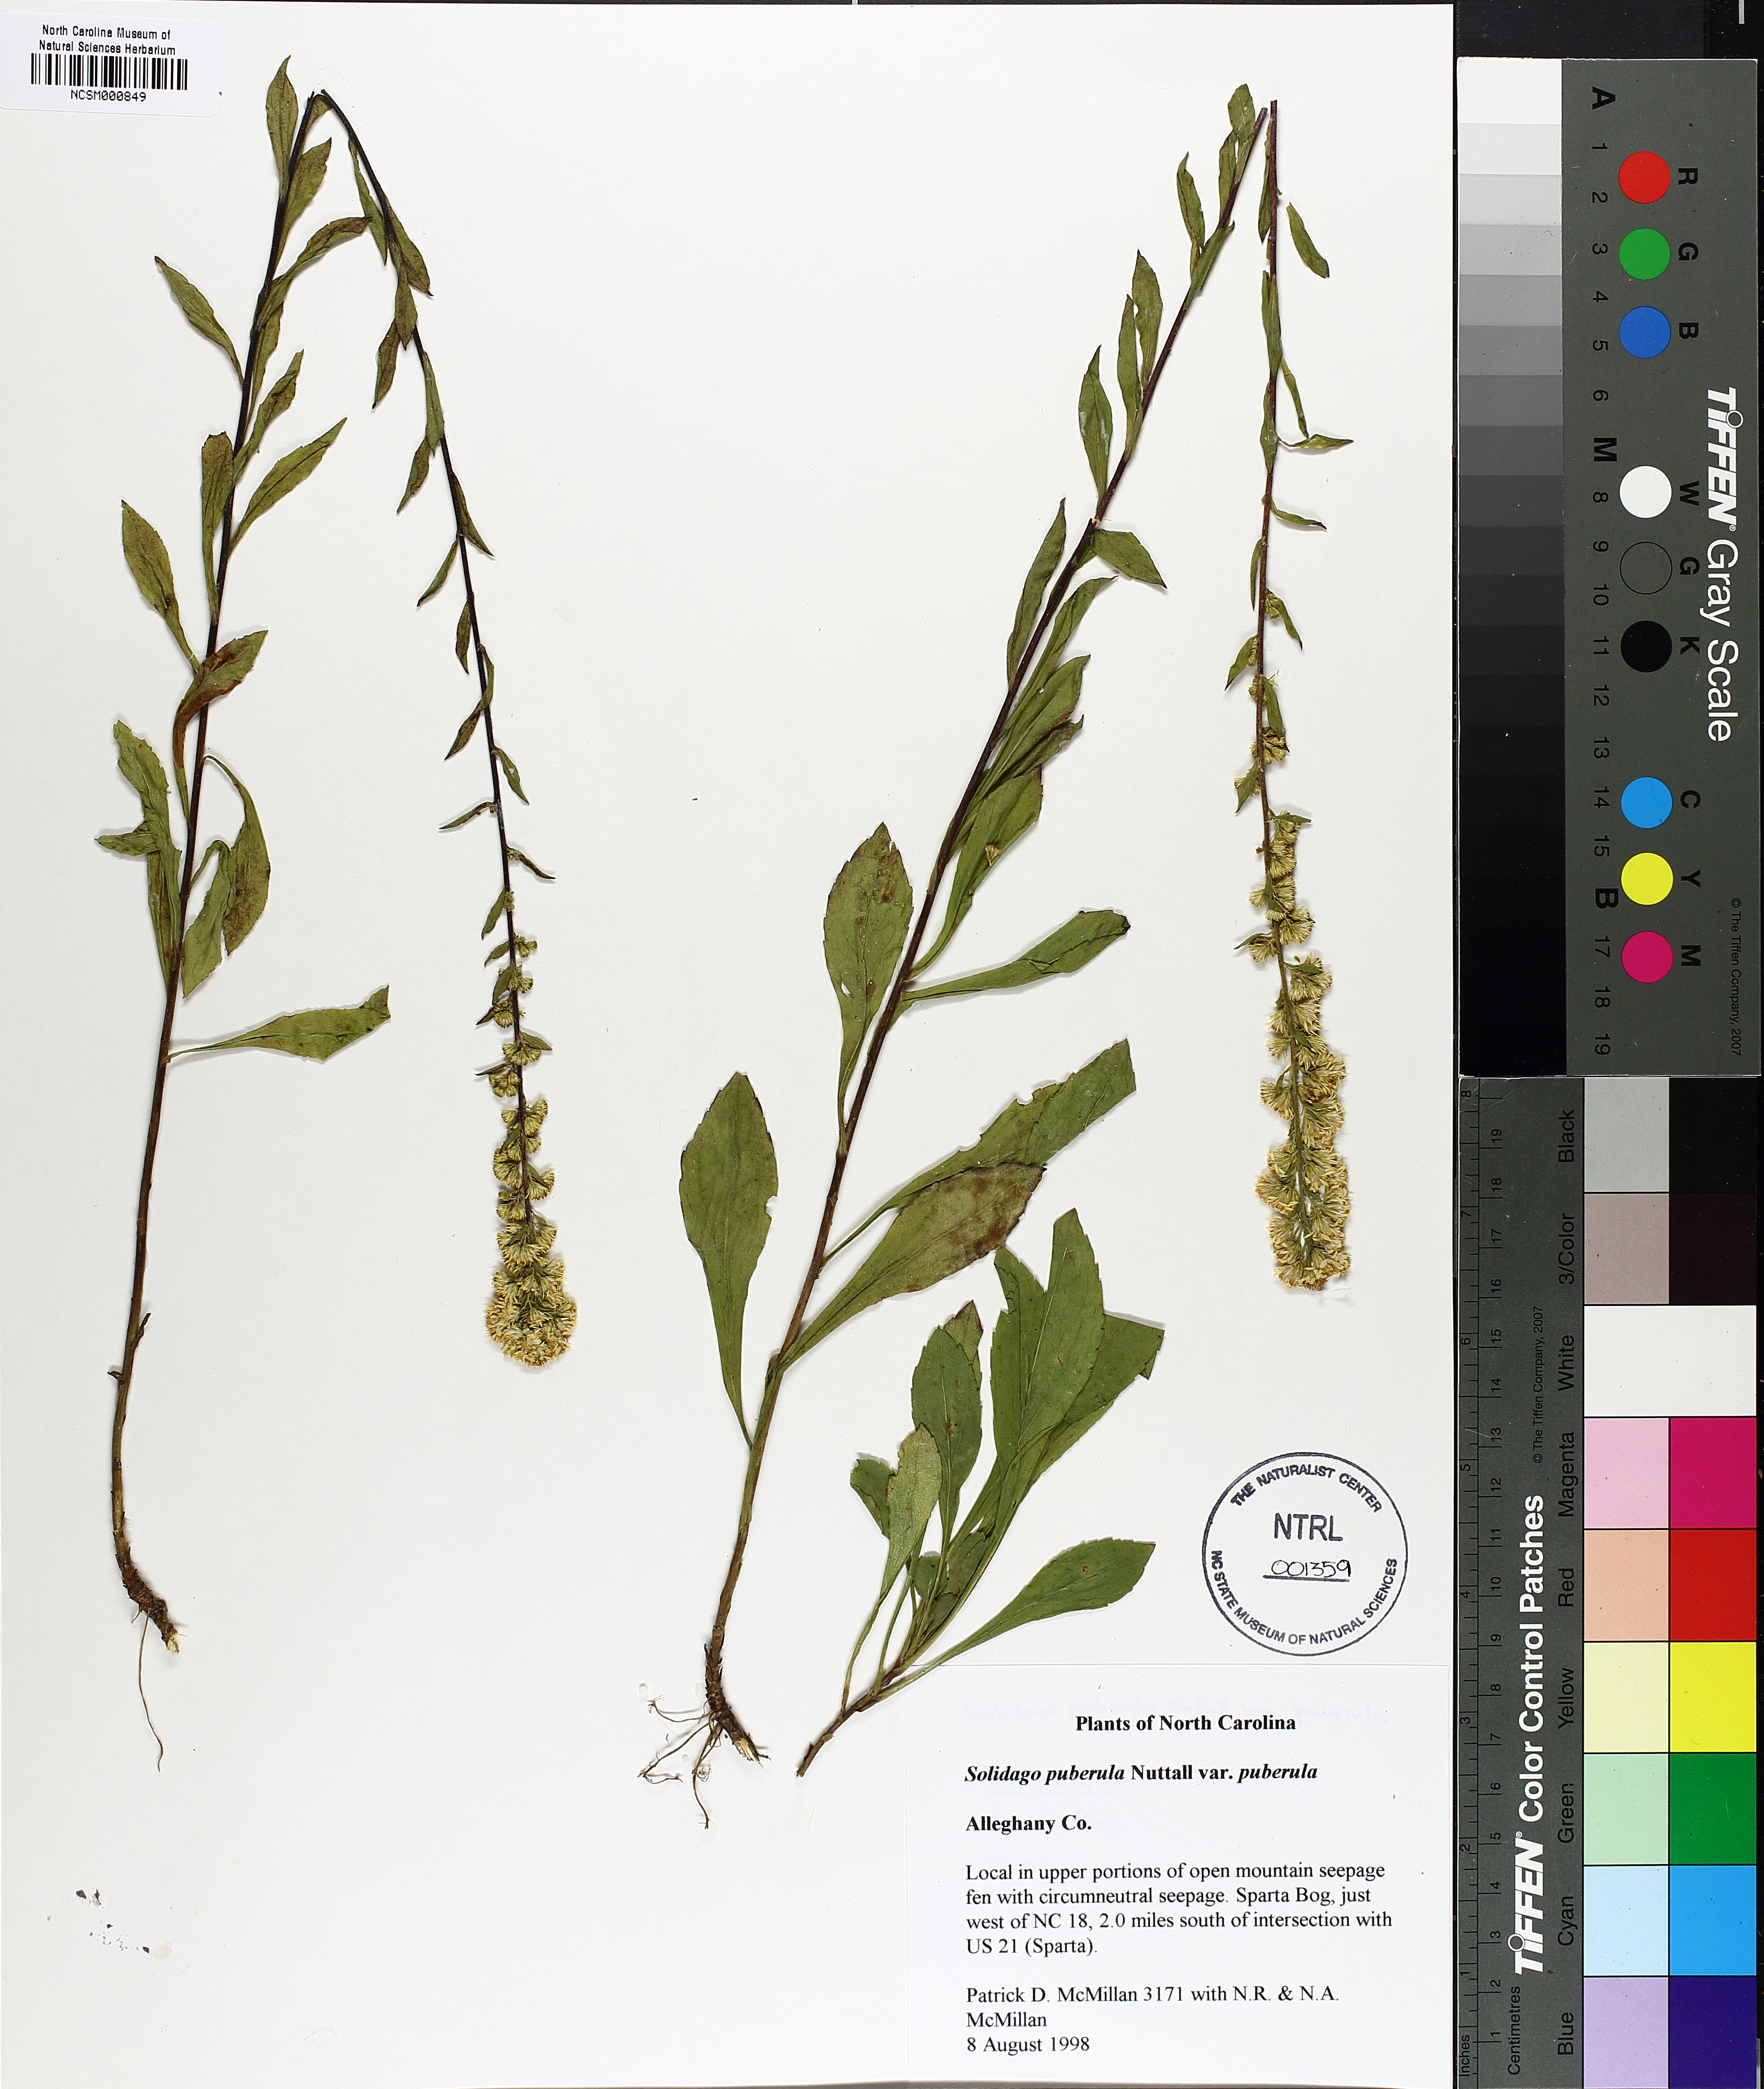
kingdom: Plantae
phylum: Tracheophyta
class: Magnoliopsida
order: Asterales
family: Asteraceae
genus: Solidago
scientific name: Solidago puberula
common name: Downy goldenrod
